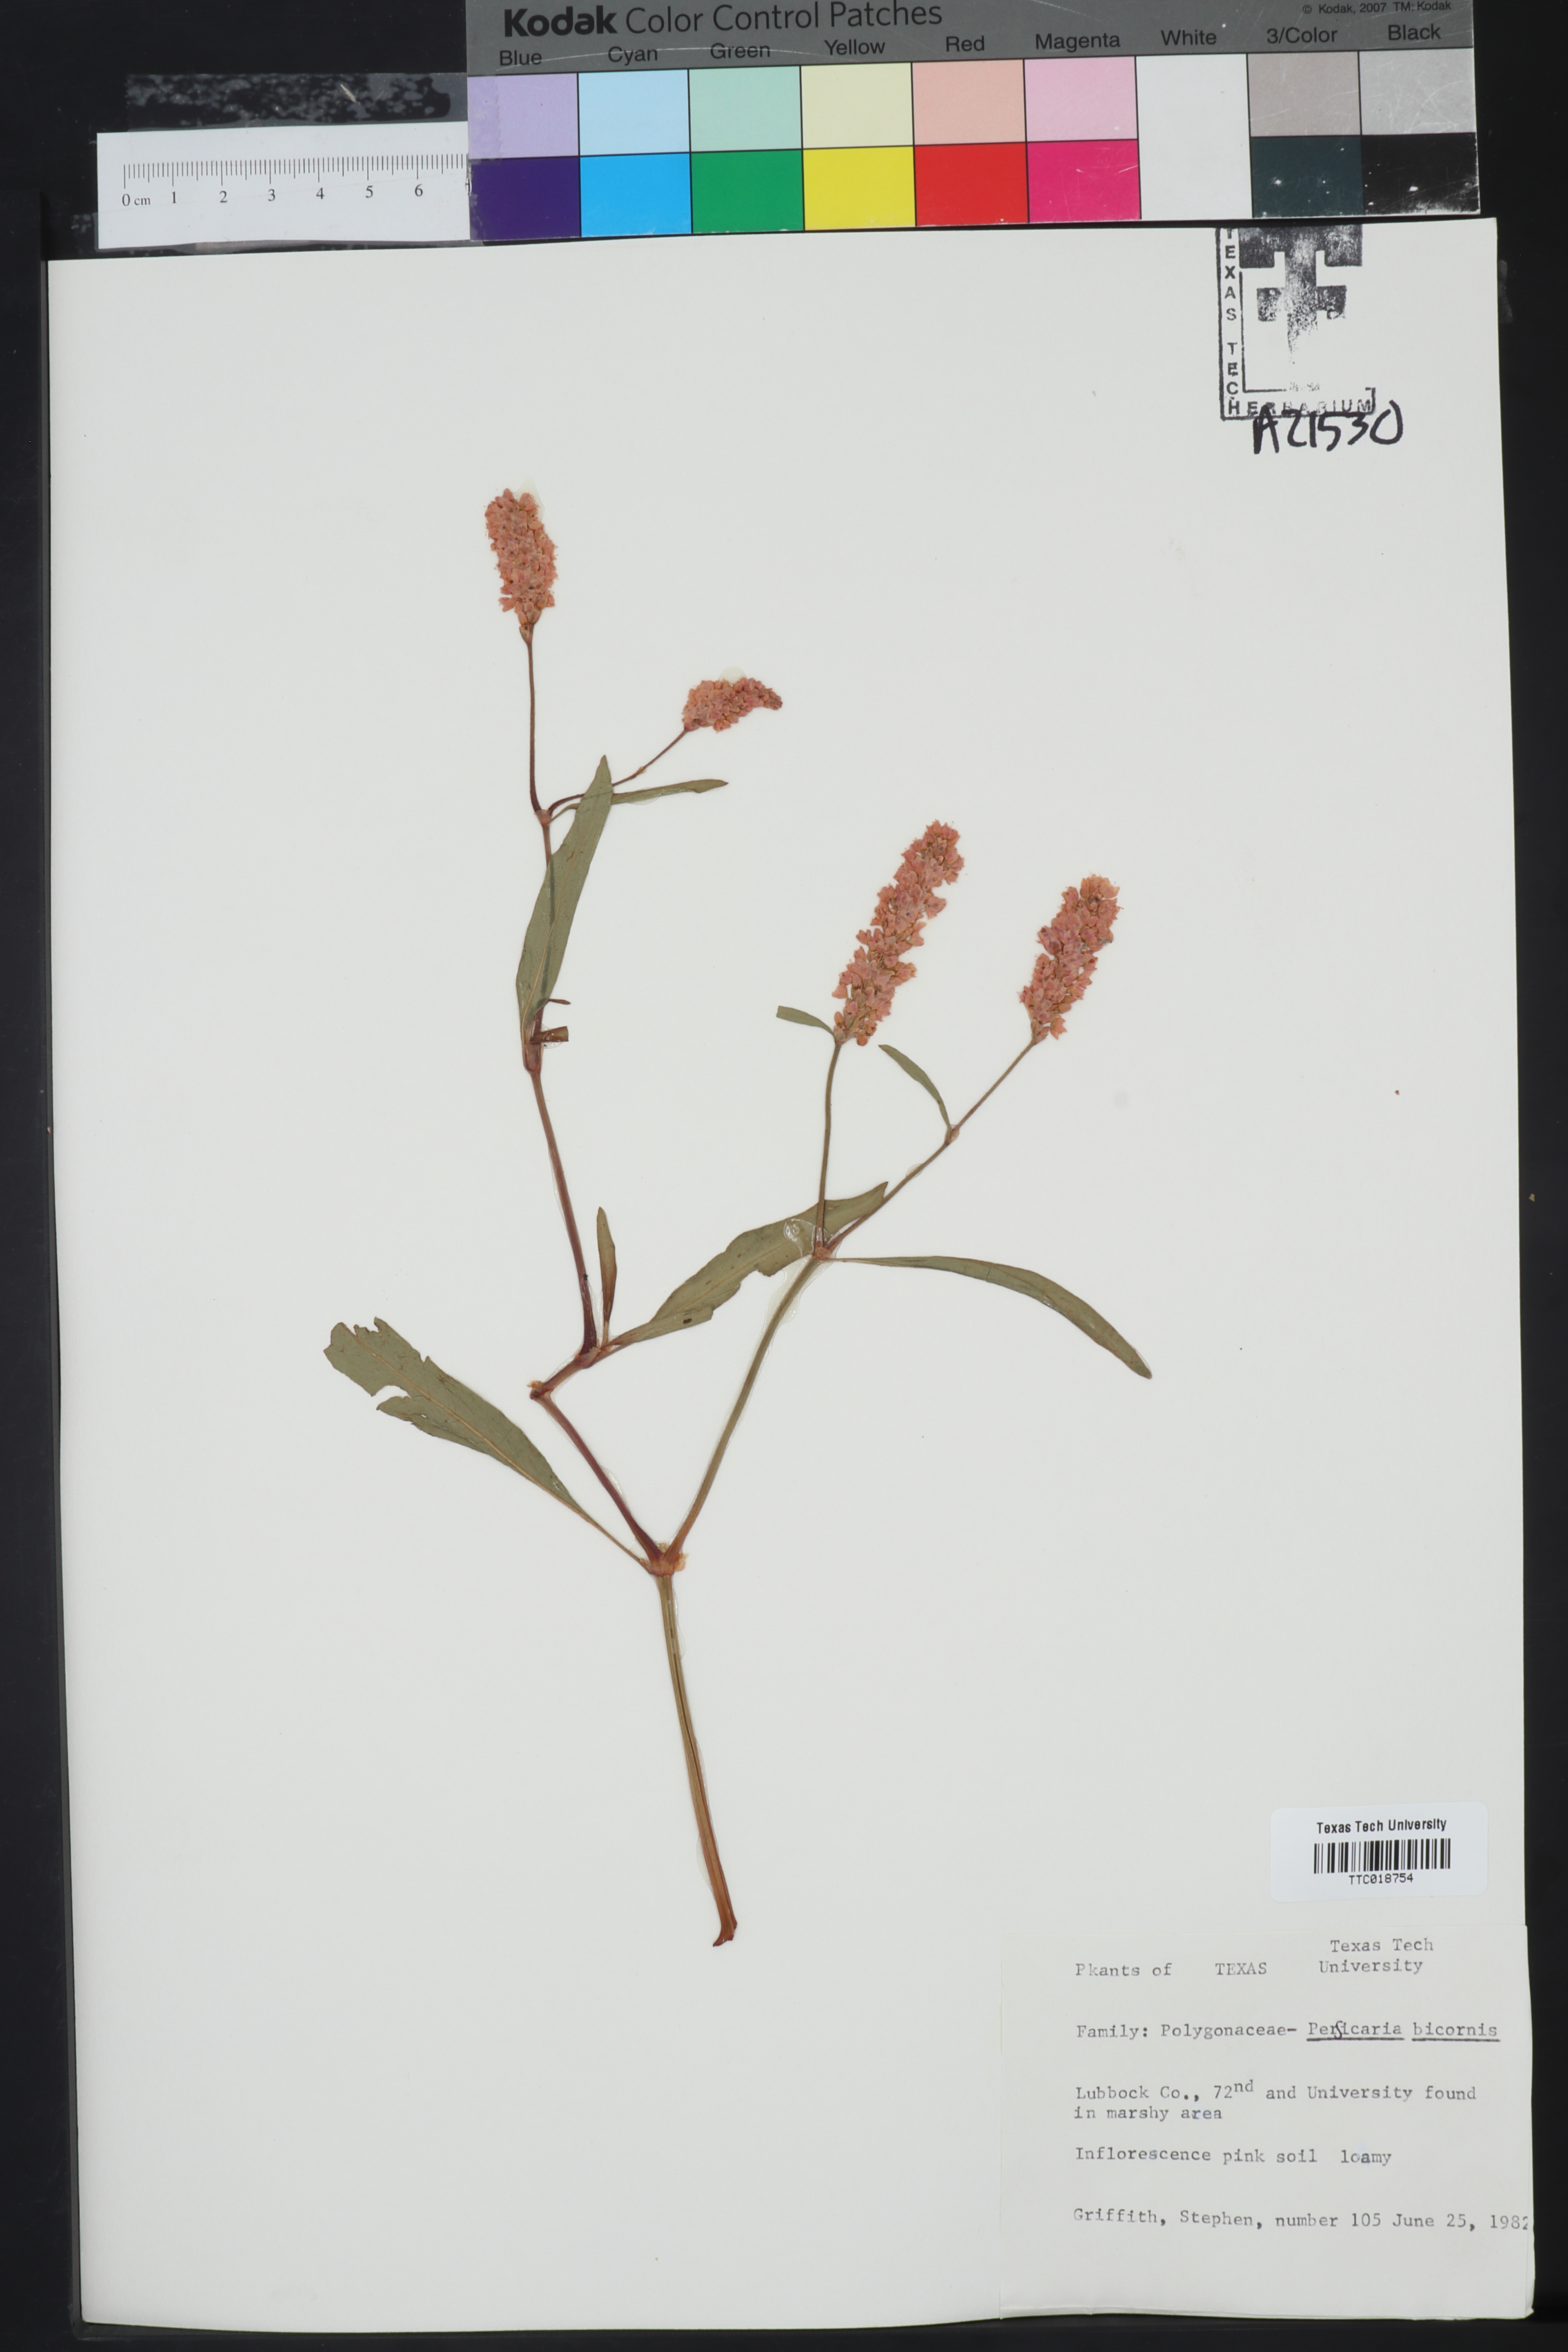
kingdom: Plantae
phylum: Tracheophyta
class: Magnoliopsida
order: Caryophyllales
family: Polygonaceae
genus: Persicaria
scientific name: Persicaria bicornis
